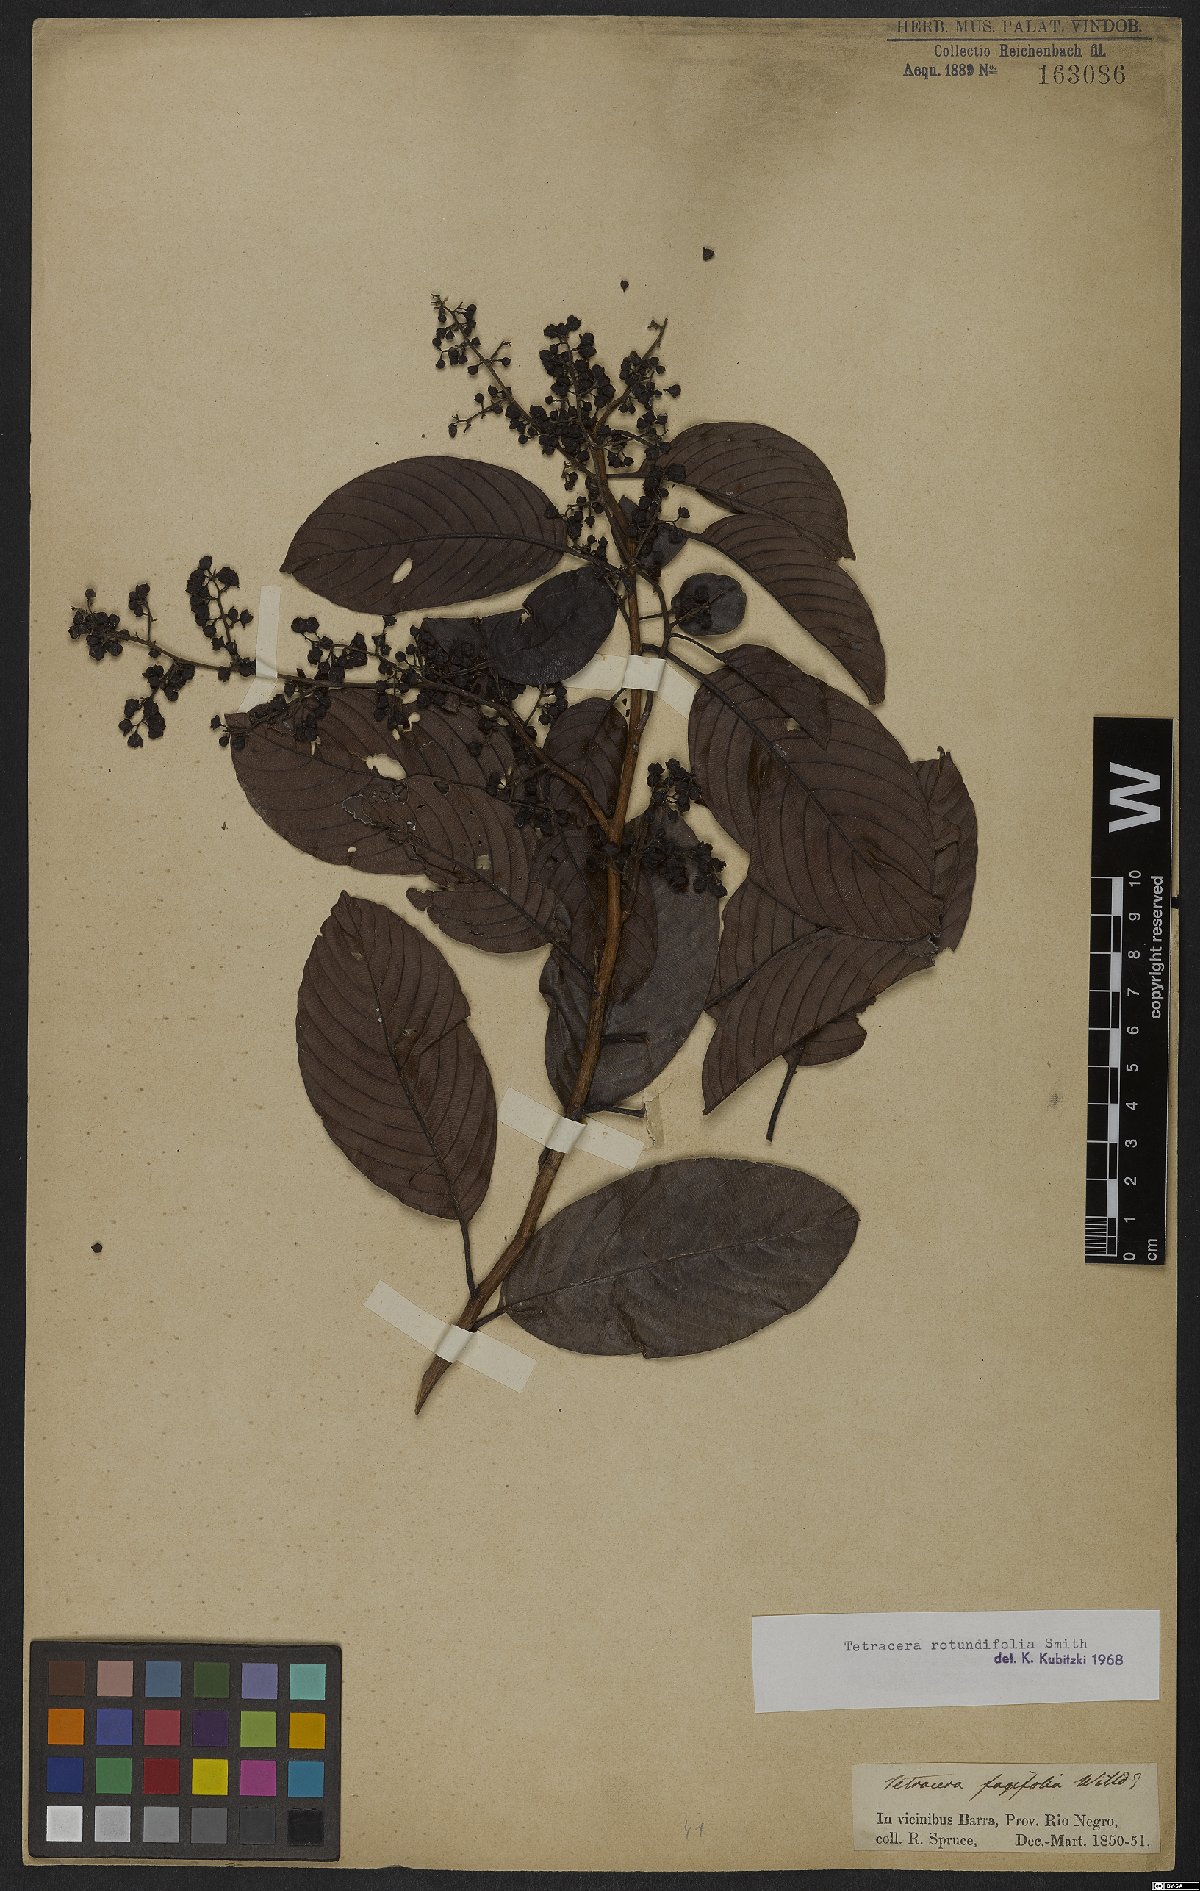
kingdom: Plantae
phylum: Tracheophyta
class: Magnoliopsida
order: Dilleniales
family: Dilleniaceae
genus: Tetracera
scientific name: Tetracera rotundifolia
